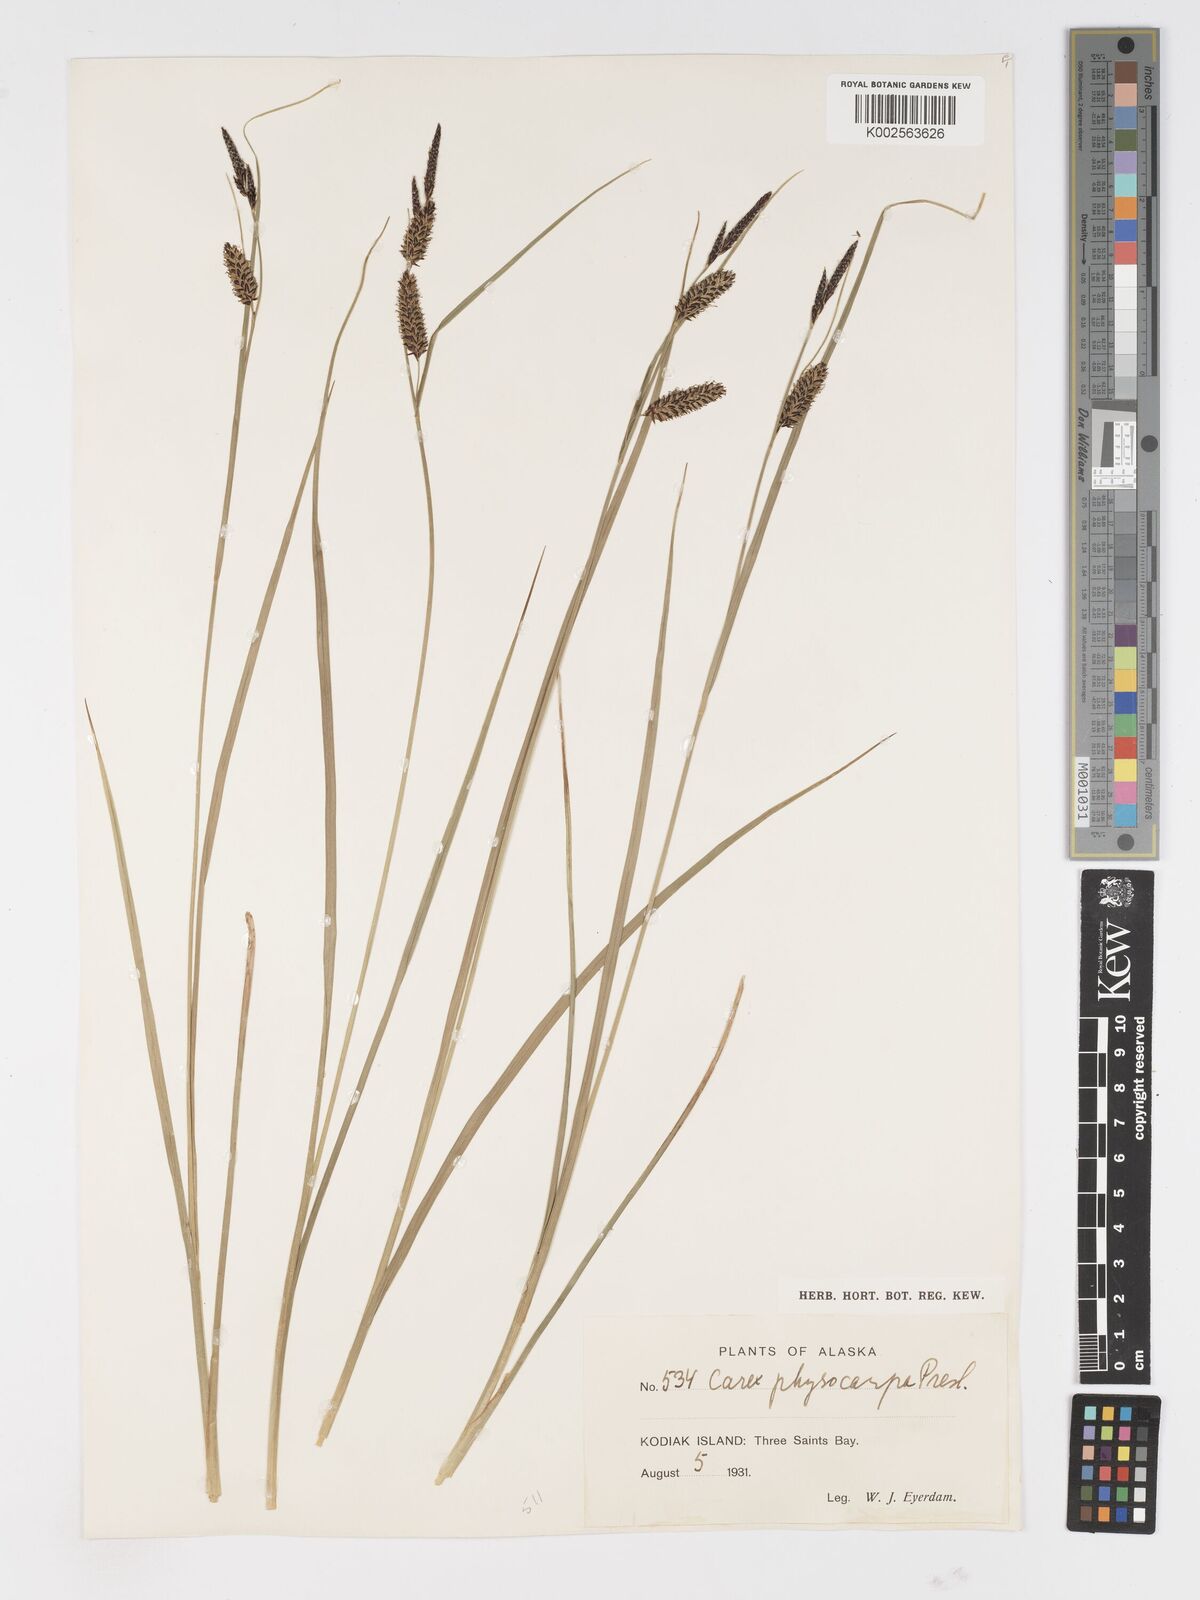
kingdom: Plantae
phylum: Tracheophyta
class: Liliopsida
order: Poales
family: Cyperaceae
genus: Carex
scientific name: Carex saxatilis
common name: Russet sedge
